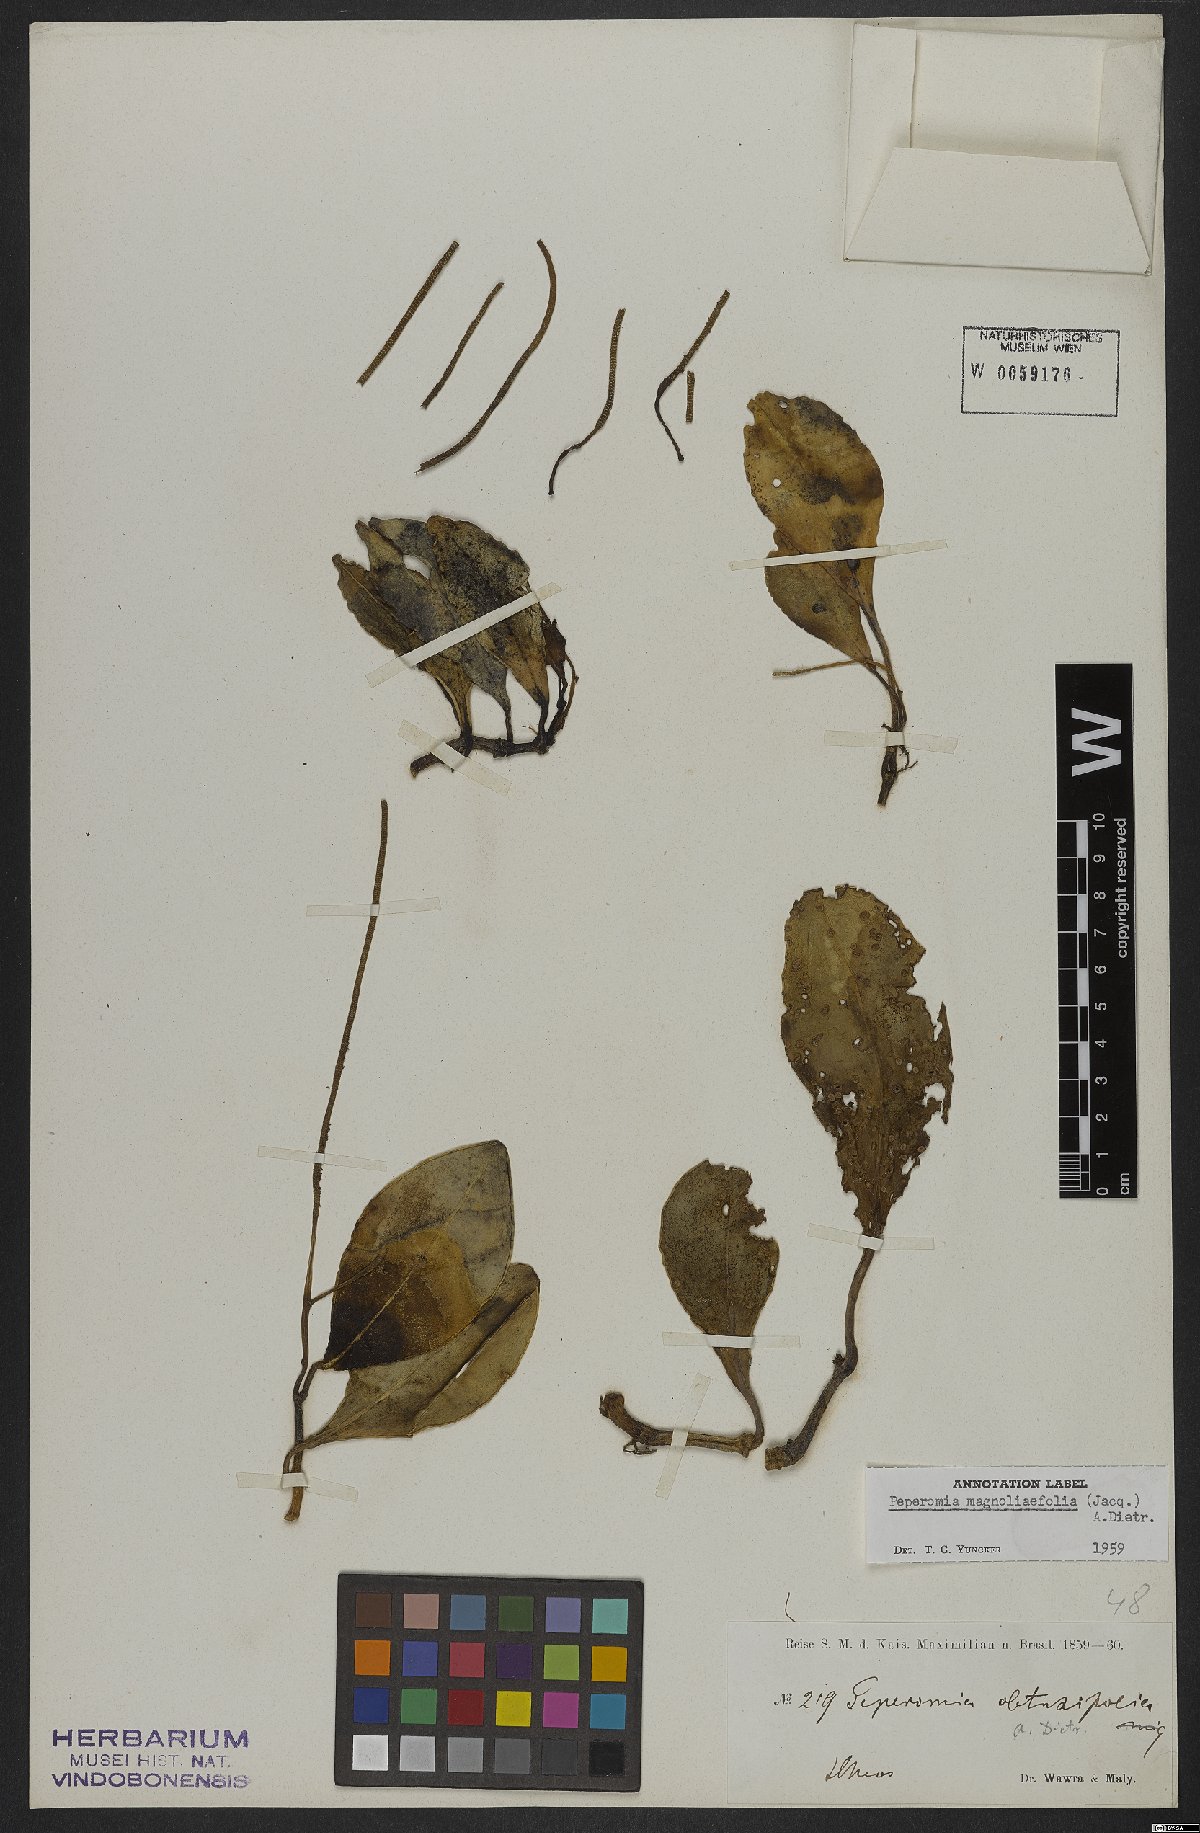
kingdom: Plantae
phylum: Tracheophyta
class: Magnoliopsida
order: Piperales
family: Piperaceae
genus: Peperomia
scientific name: Peperomia magnoliifolia
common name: Spoonleaf peperomia
